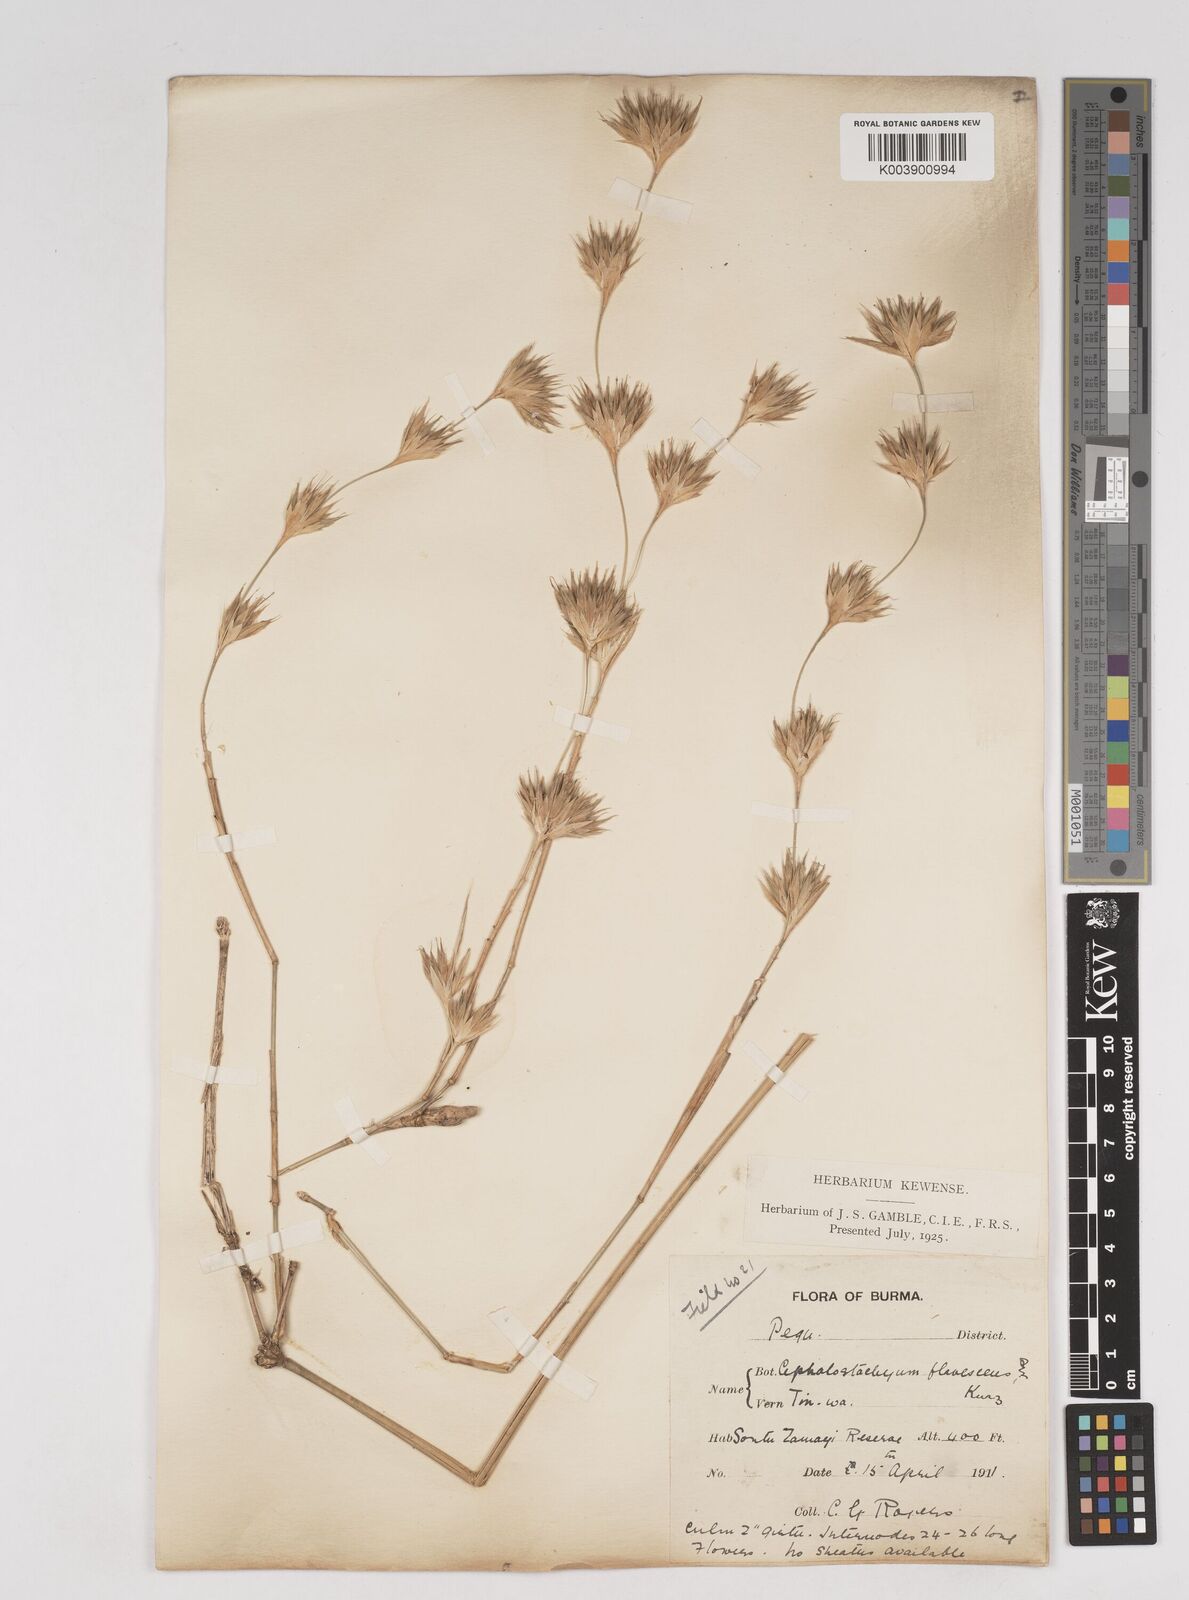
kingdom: Plantae
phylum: Tracheophyta
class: Liliopsida
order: Poales
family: Poaceae
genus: Cephalostachyum
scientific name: Cephalostachyum flavescens
